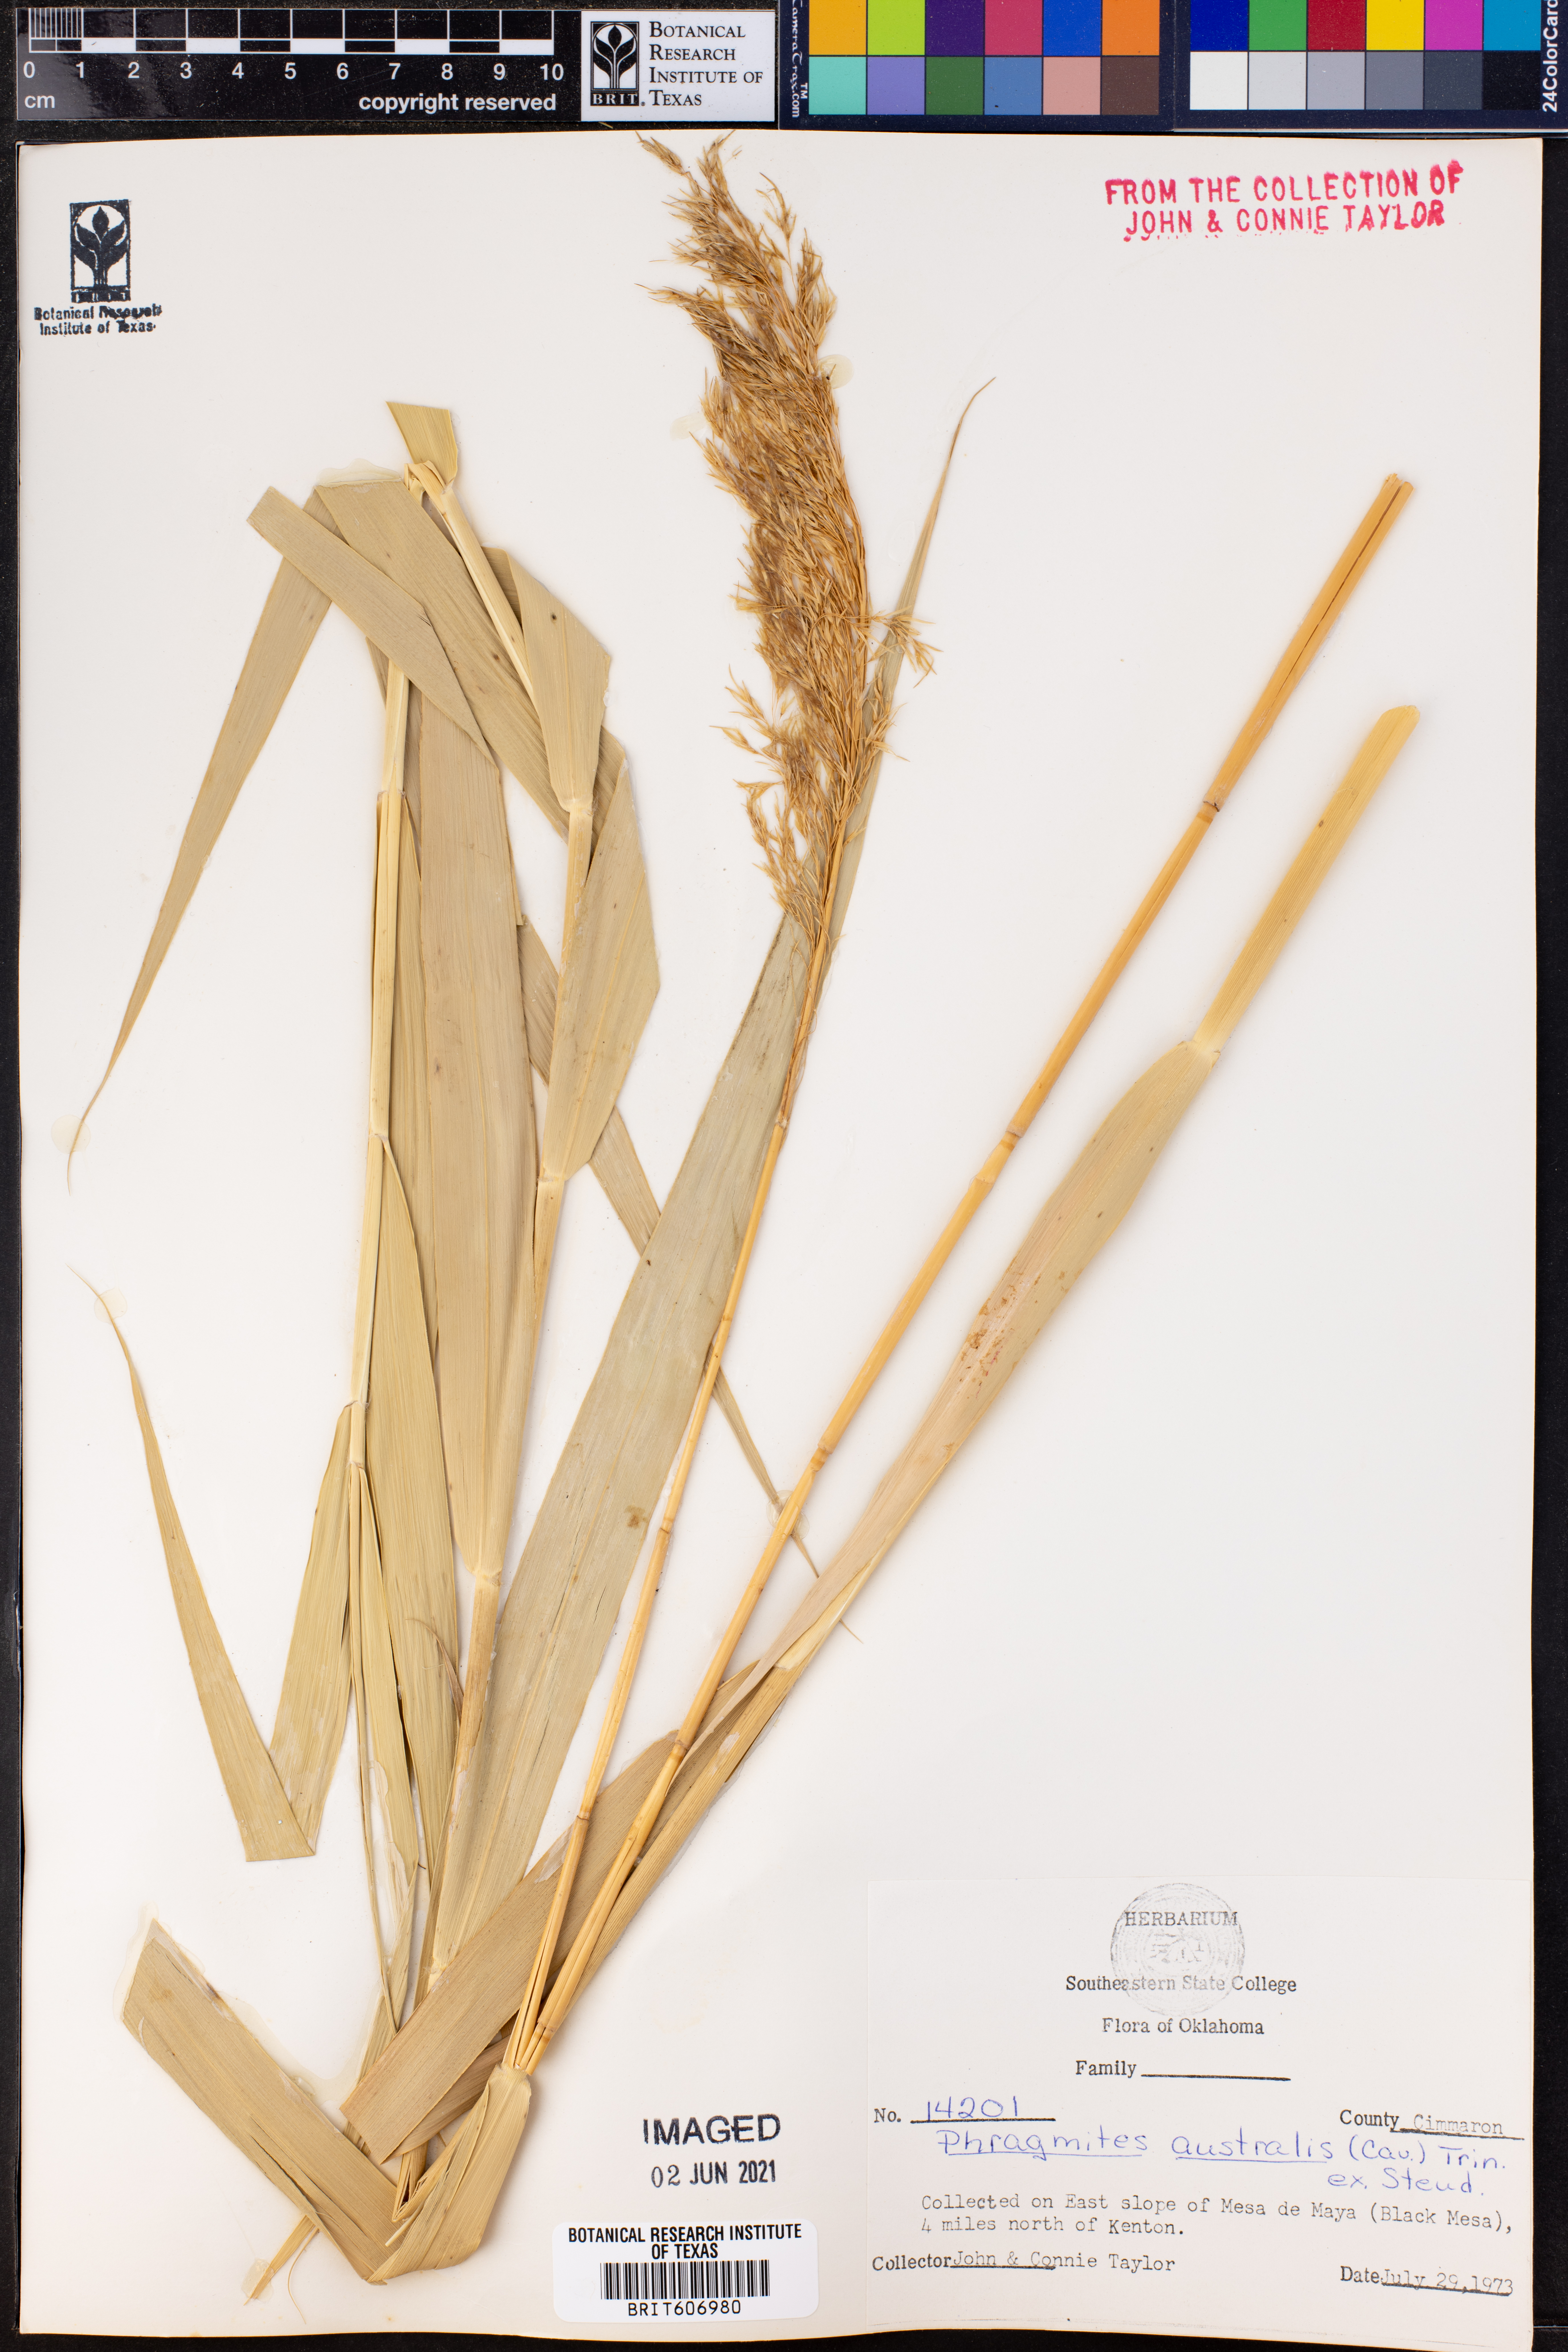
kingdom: Plantae
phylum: Tracheophyta
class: Liliopsida
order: Poales
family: Poaceae
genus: Phragmites
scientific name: Phragmites australis
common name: Common reed
